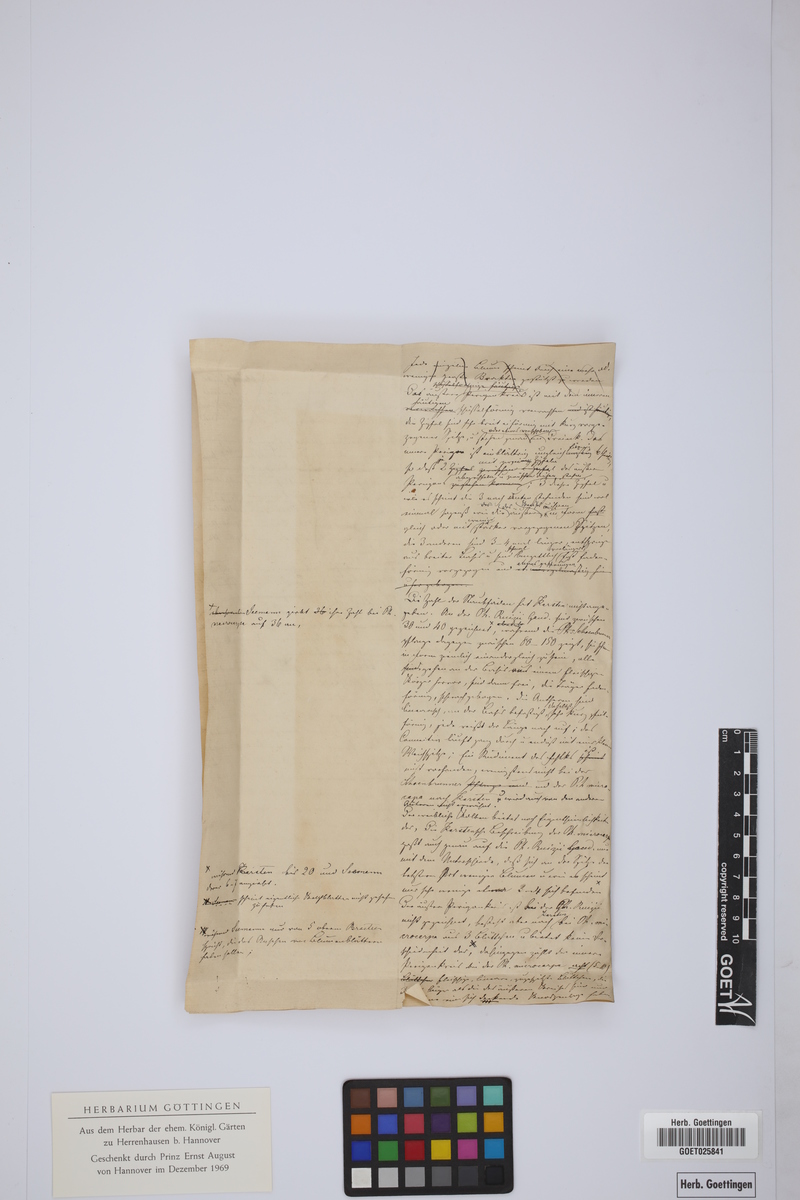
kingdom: Plantae
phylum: Tracheophyta
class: Liliopsida
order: Arecales
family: Arecaceae
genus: Socratea
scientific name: Socratea
